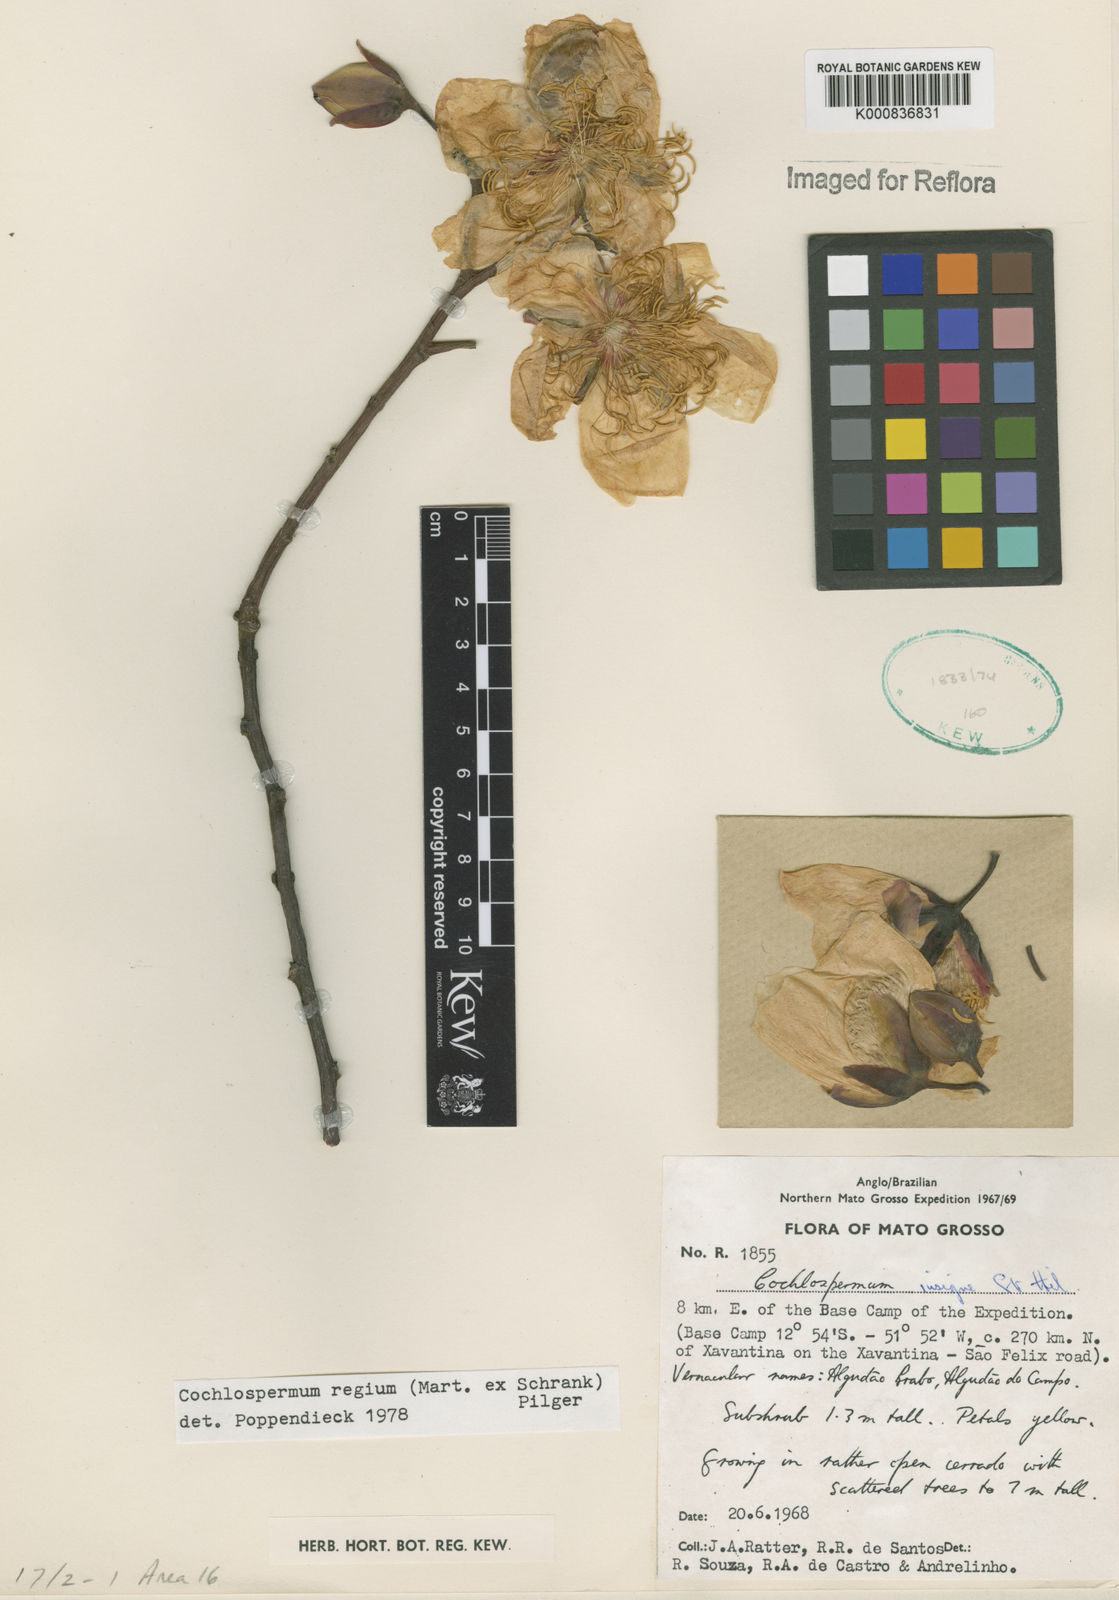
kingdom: Plantae
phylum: Tracheophyta
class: Magnoliopsida
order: Malvales
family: Cochlospermaceae
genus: Cochlospermum
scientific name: Cochlospermum regium
